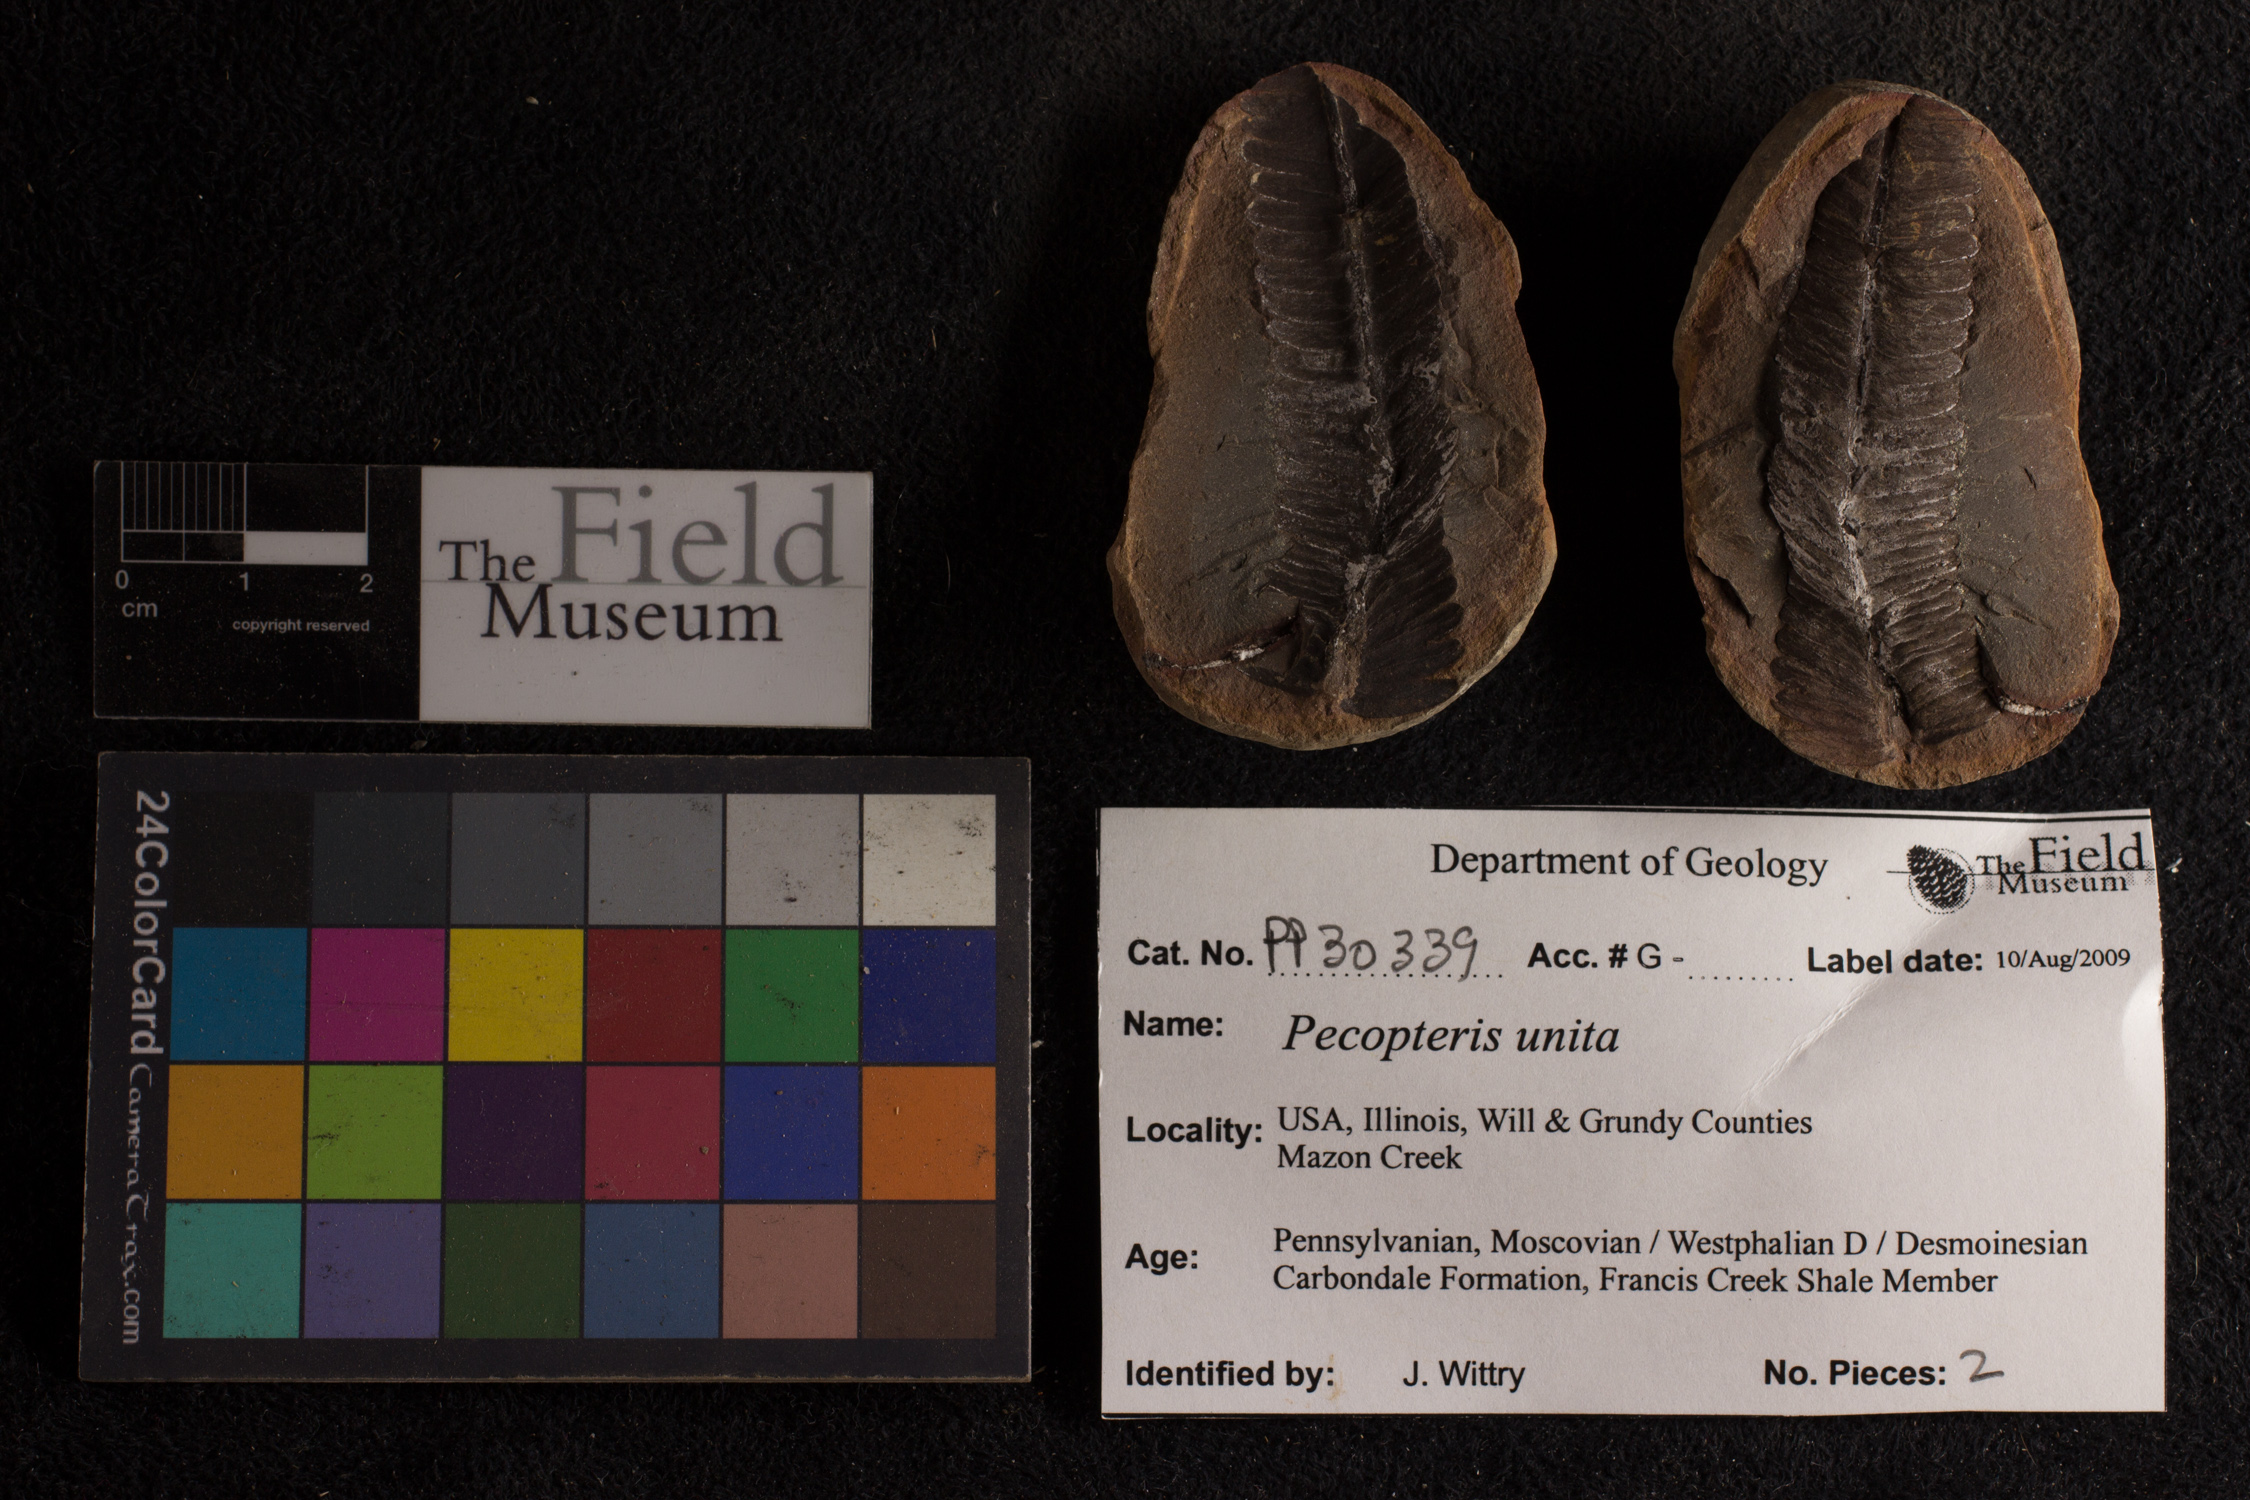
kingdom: Plantae
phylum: Tracheophyta
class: Polypodiopsida
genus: Diplazites
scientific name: Diplazites
